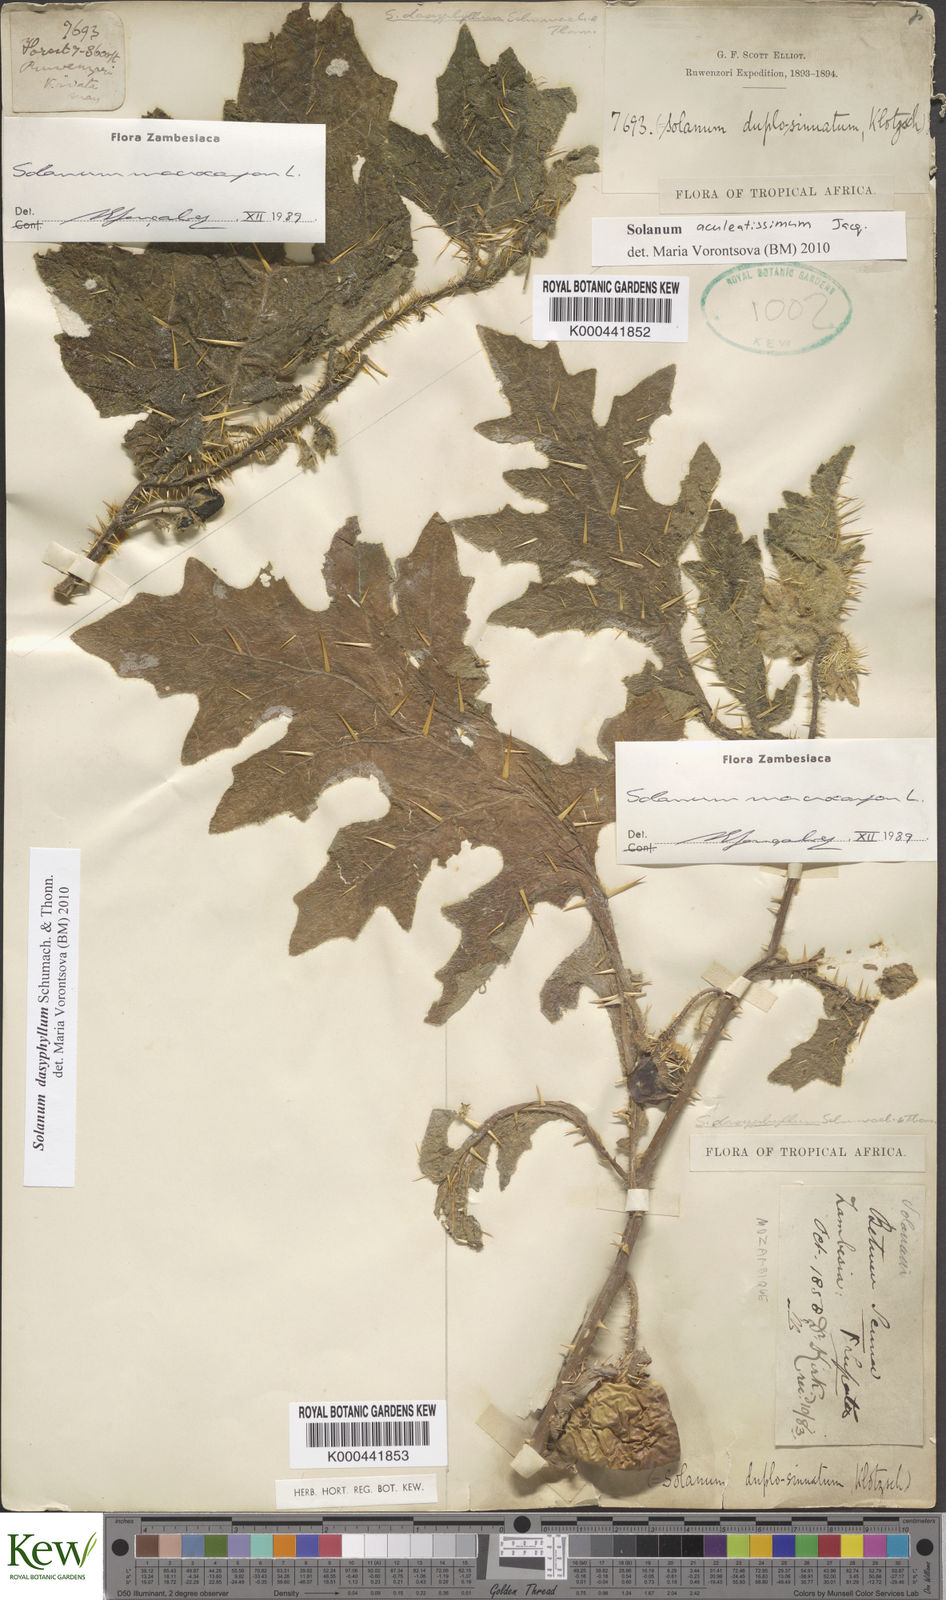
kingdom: Plantae
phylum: Tracheophyta
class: Magnoliopsida
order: Solanales
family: Solanaceae
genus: Solanum
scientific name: Solanum dasyphyllum
